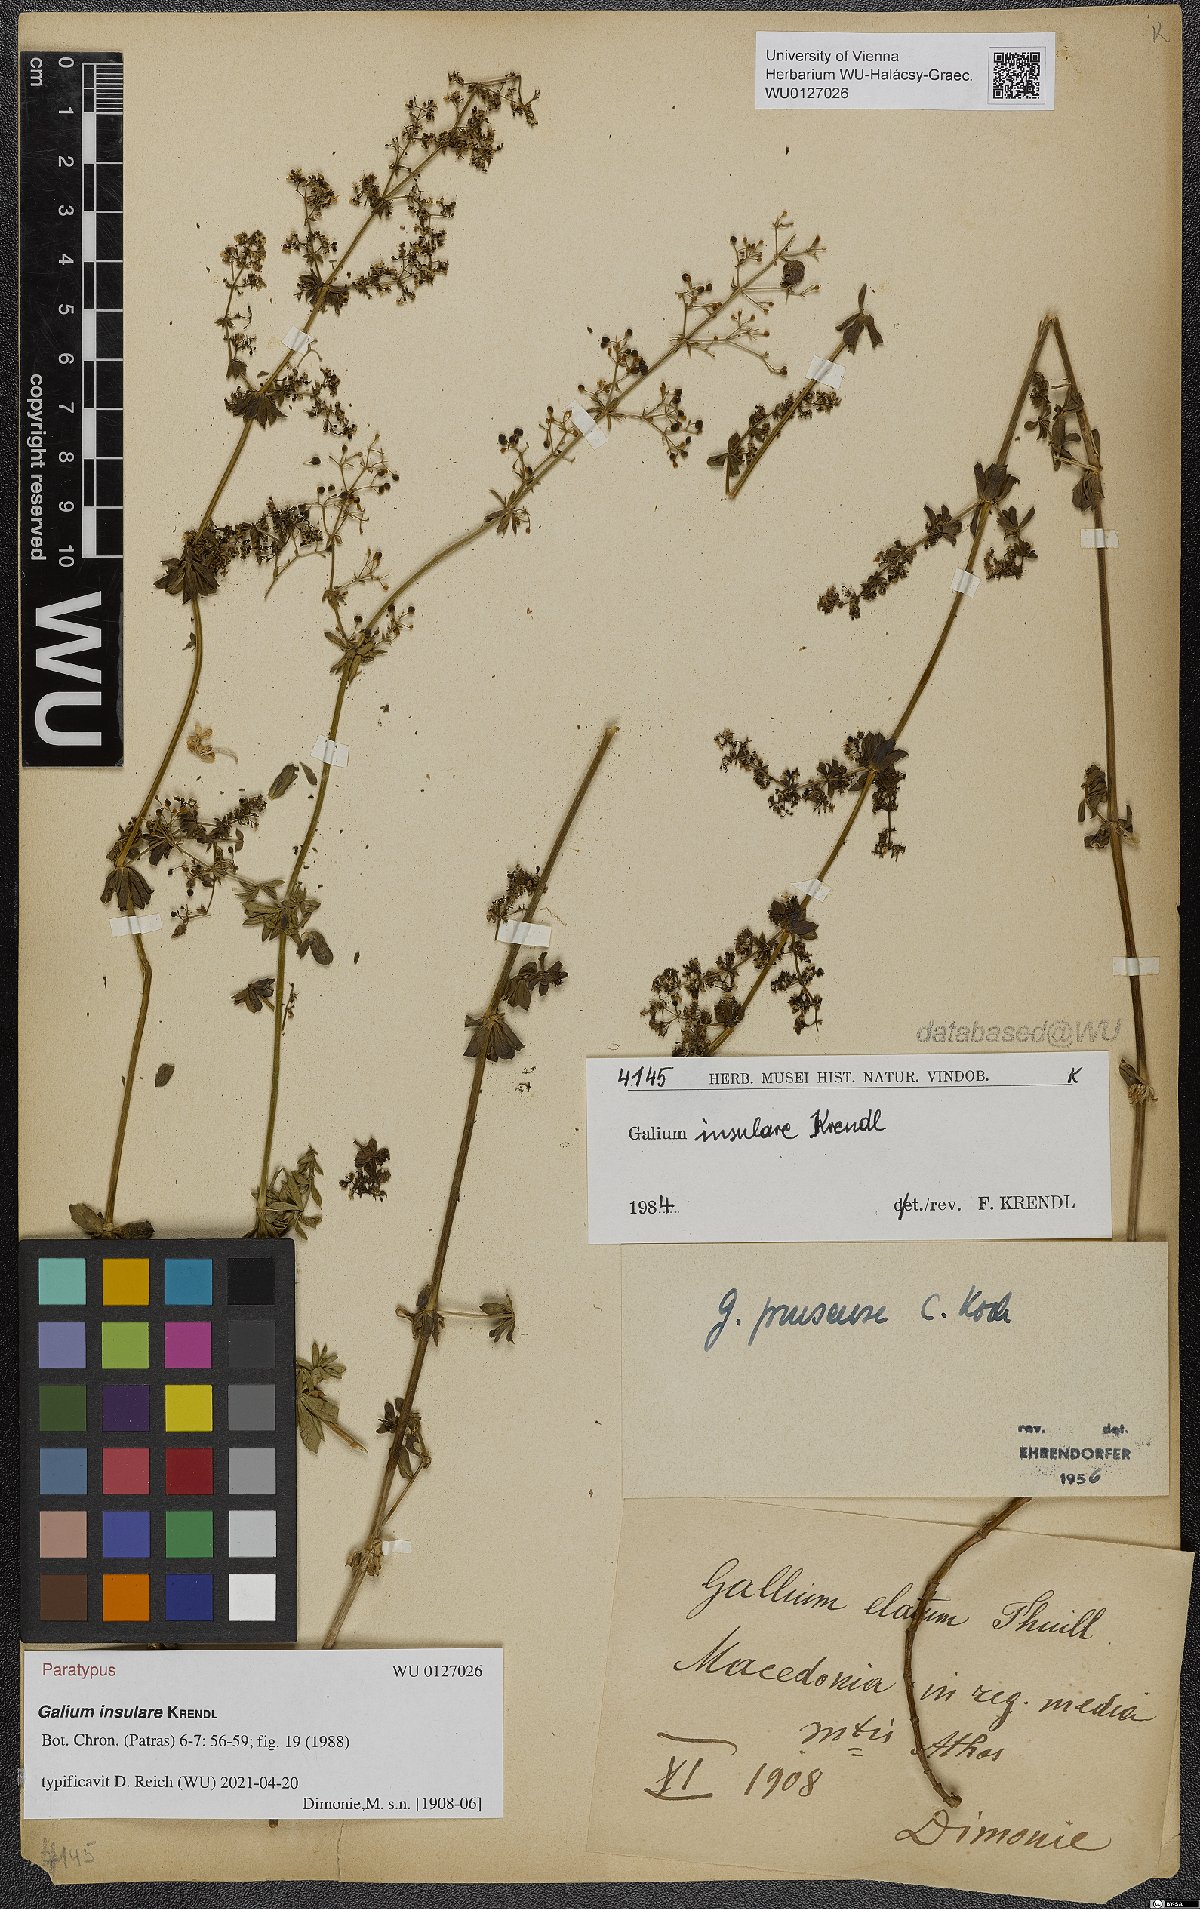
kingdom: Plantae
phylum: Tracheophyta
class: Magnoliopsida
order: Gentianales
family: Rubiaceae
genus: Galium
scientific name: Galium insulare
